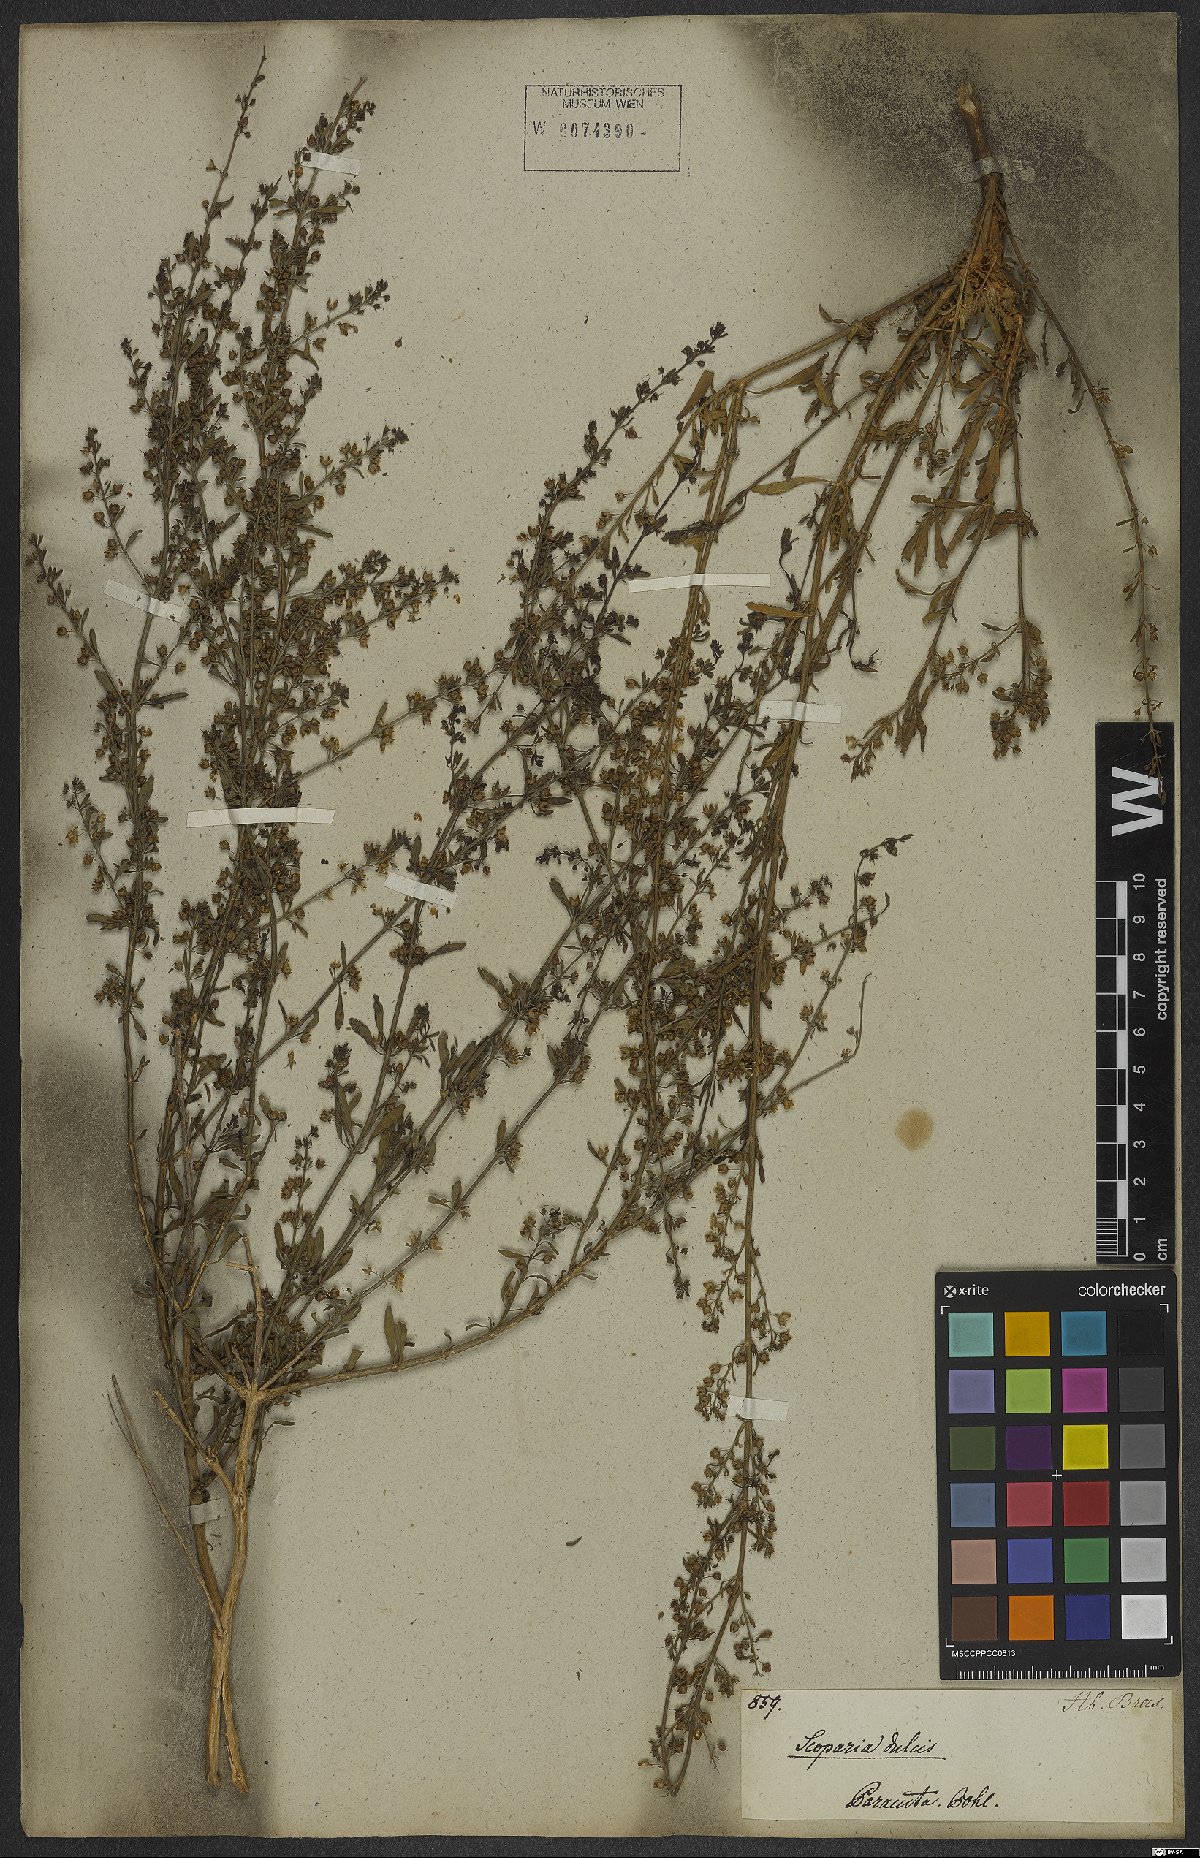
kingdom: Plantae
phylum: Tracheophyta
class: Magnoliopsida
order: Lamiales
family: Plantaginaceae
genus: Scoparia
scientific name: Scoparia dulcis
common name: Scoparia-weed
